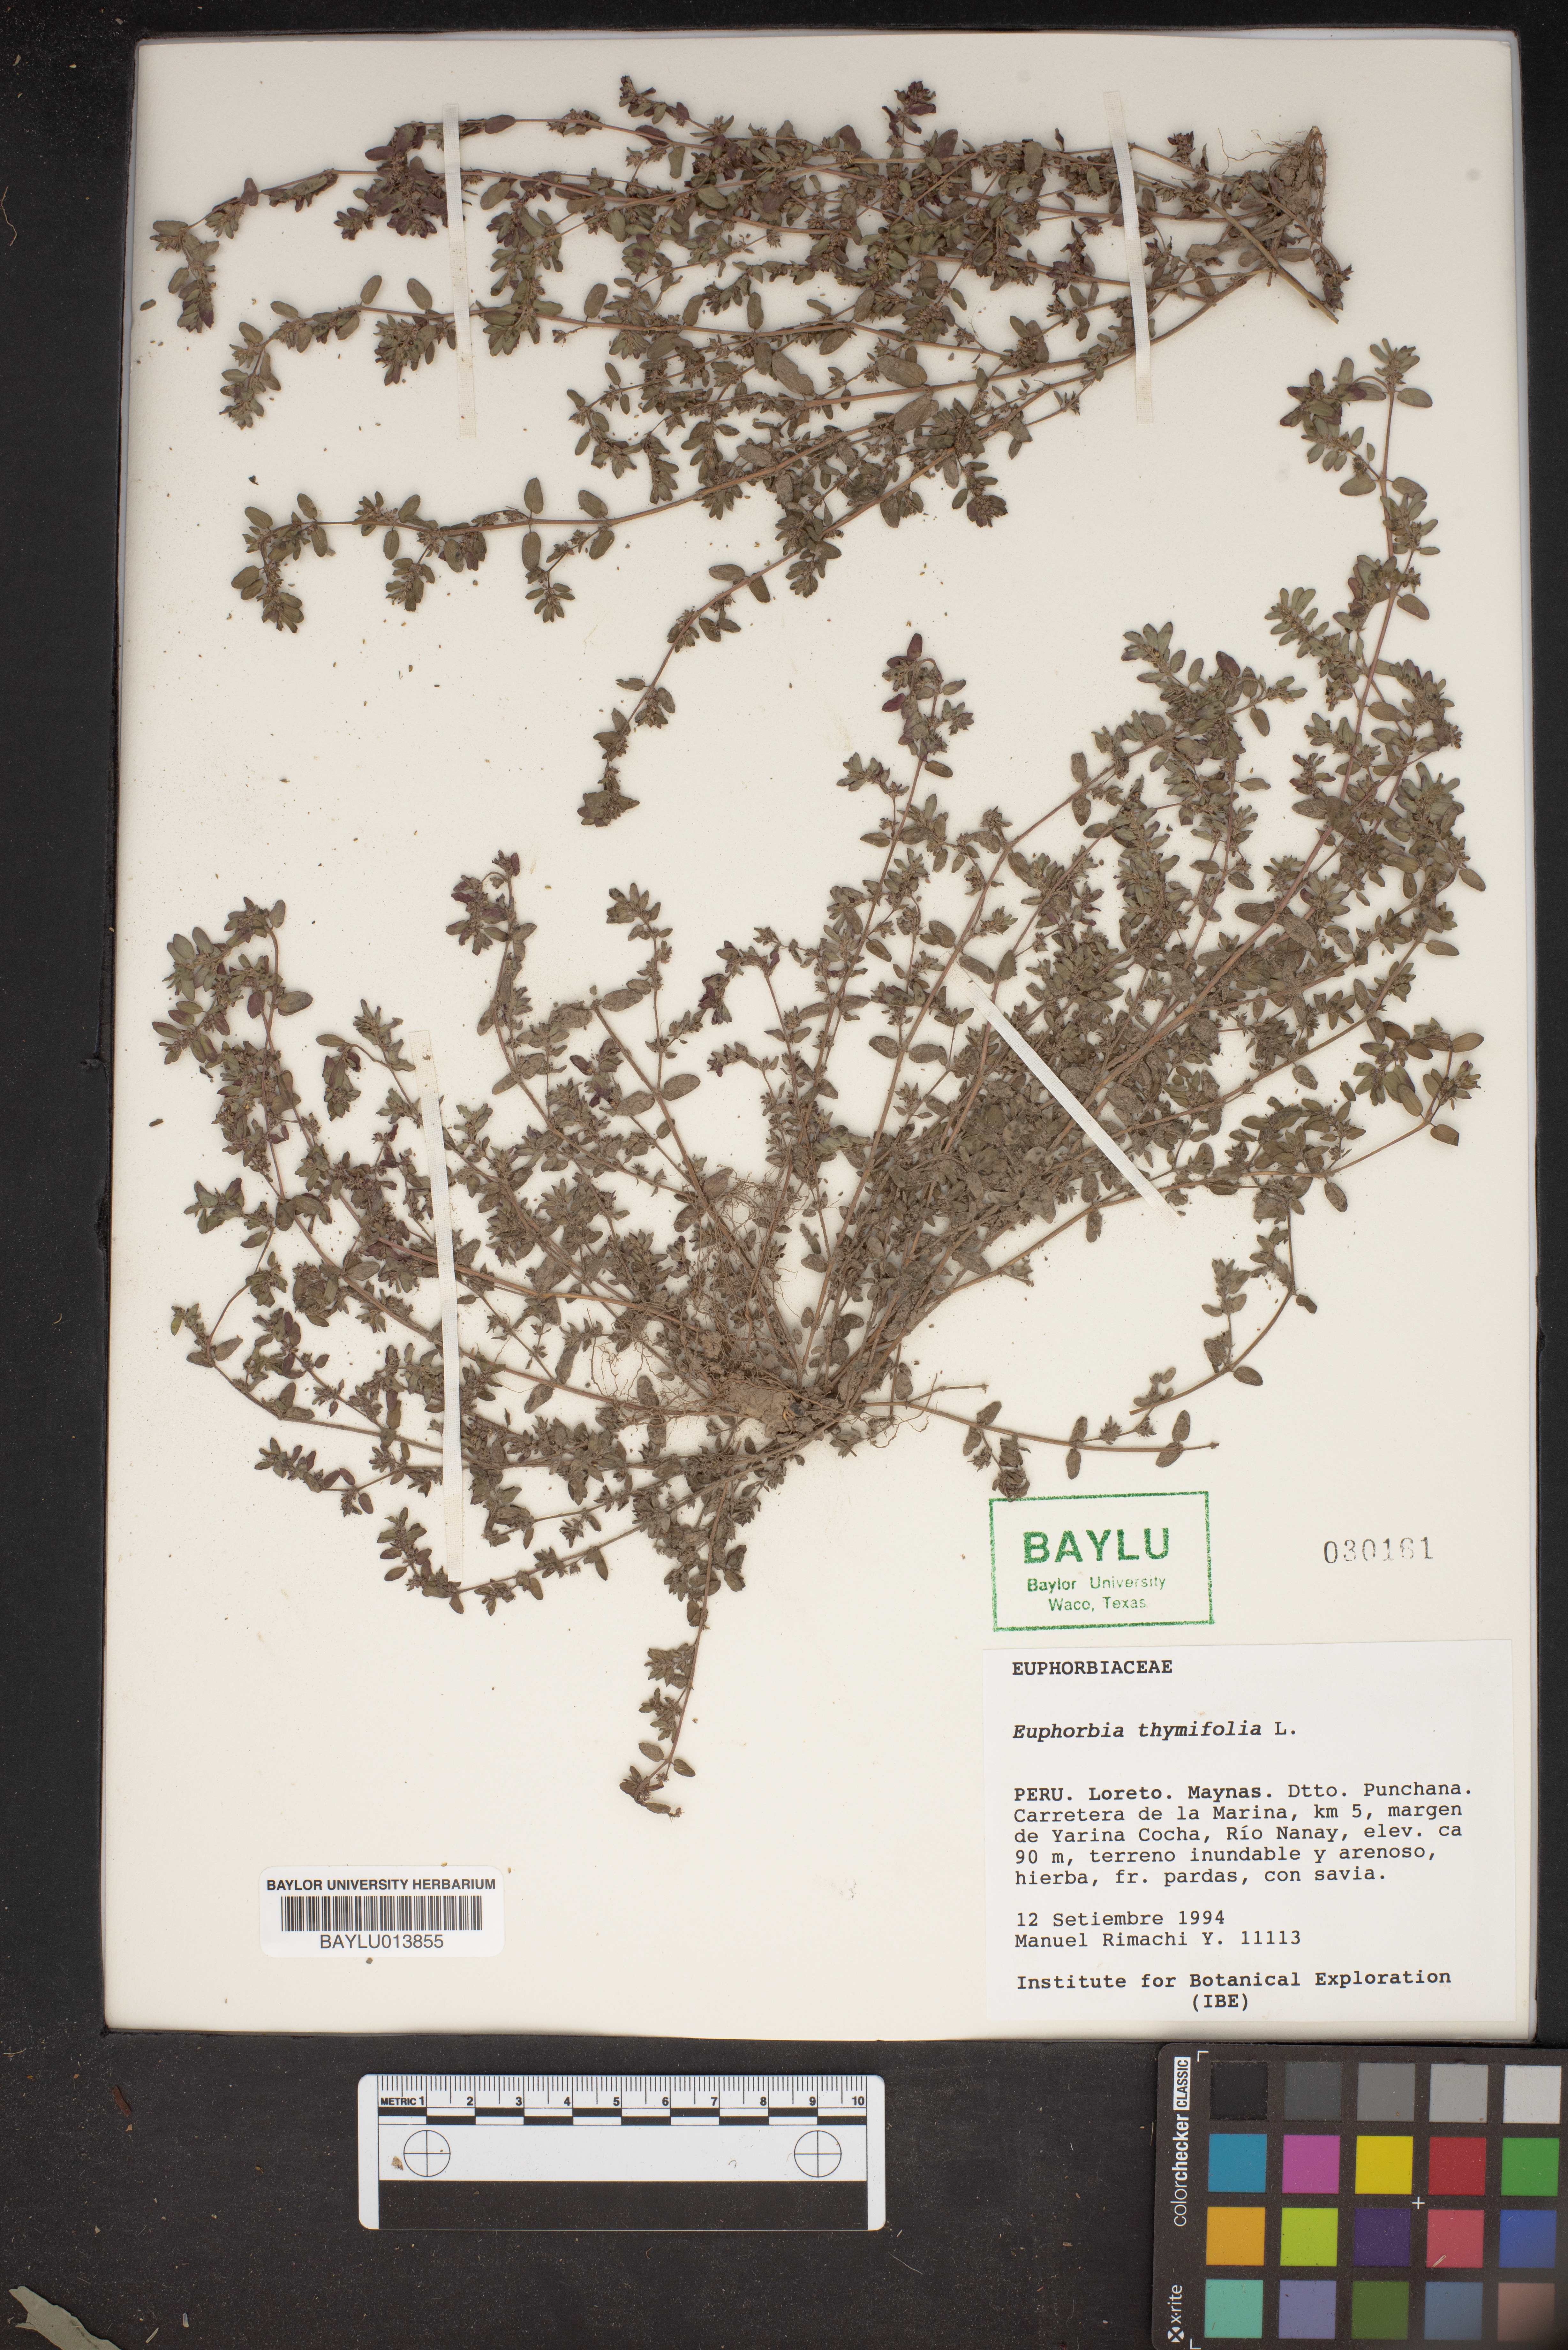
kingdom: Plantae
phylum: Tracheophyta
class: Magnoliopsida
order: Malpighiales
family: Euphorbiaceae
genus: Euphorbia
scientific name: Euphorbia thymifolia
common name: Gulf sandmat
